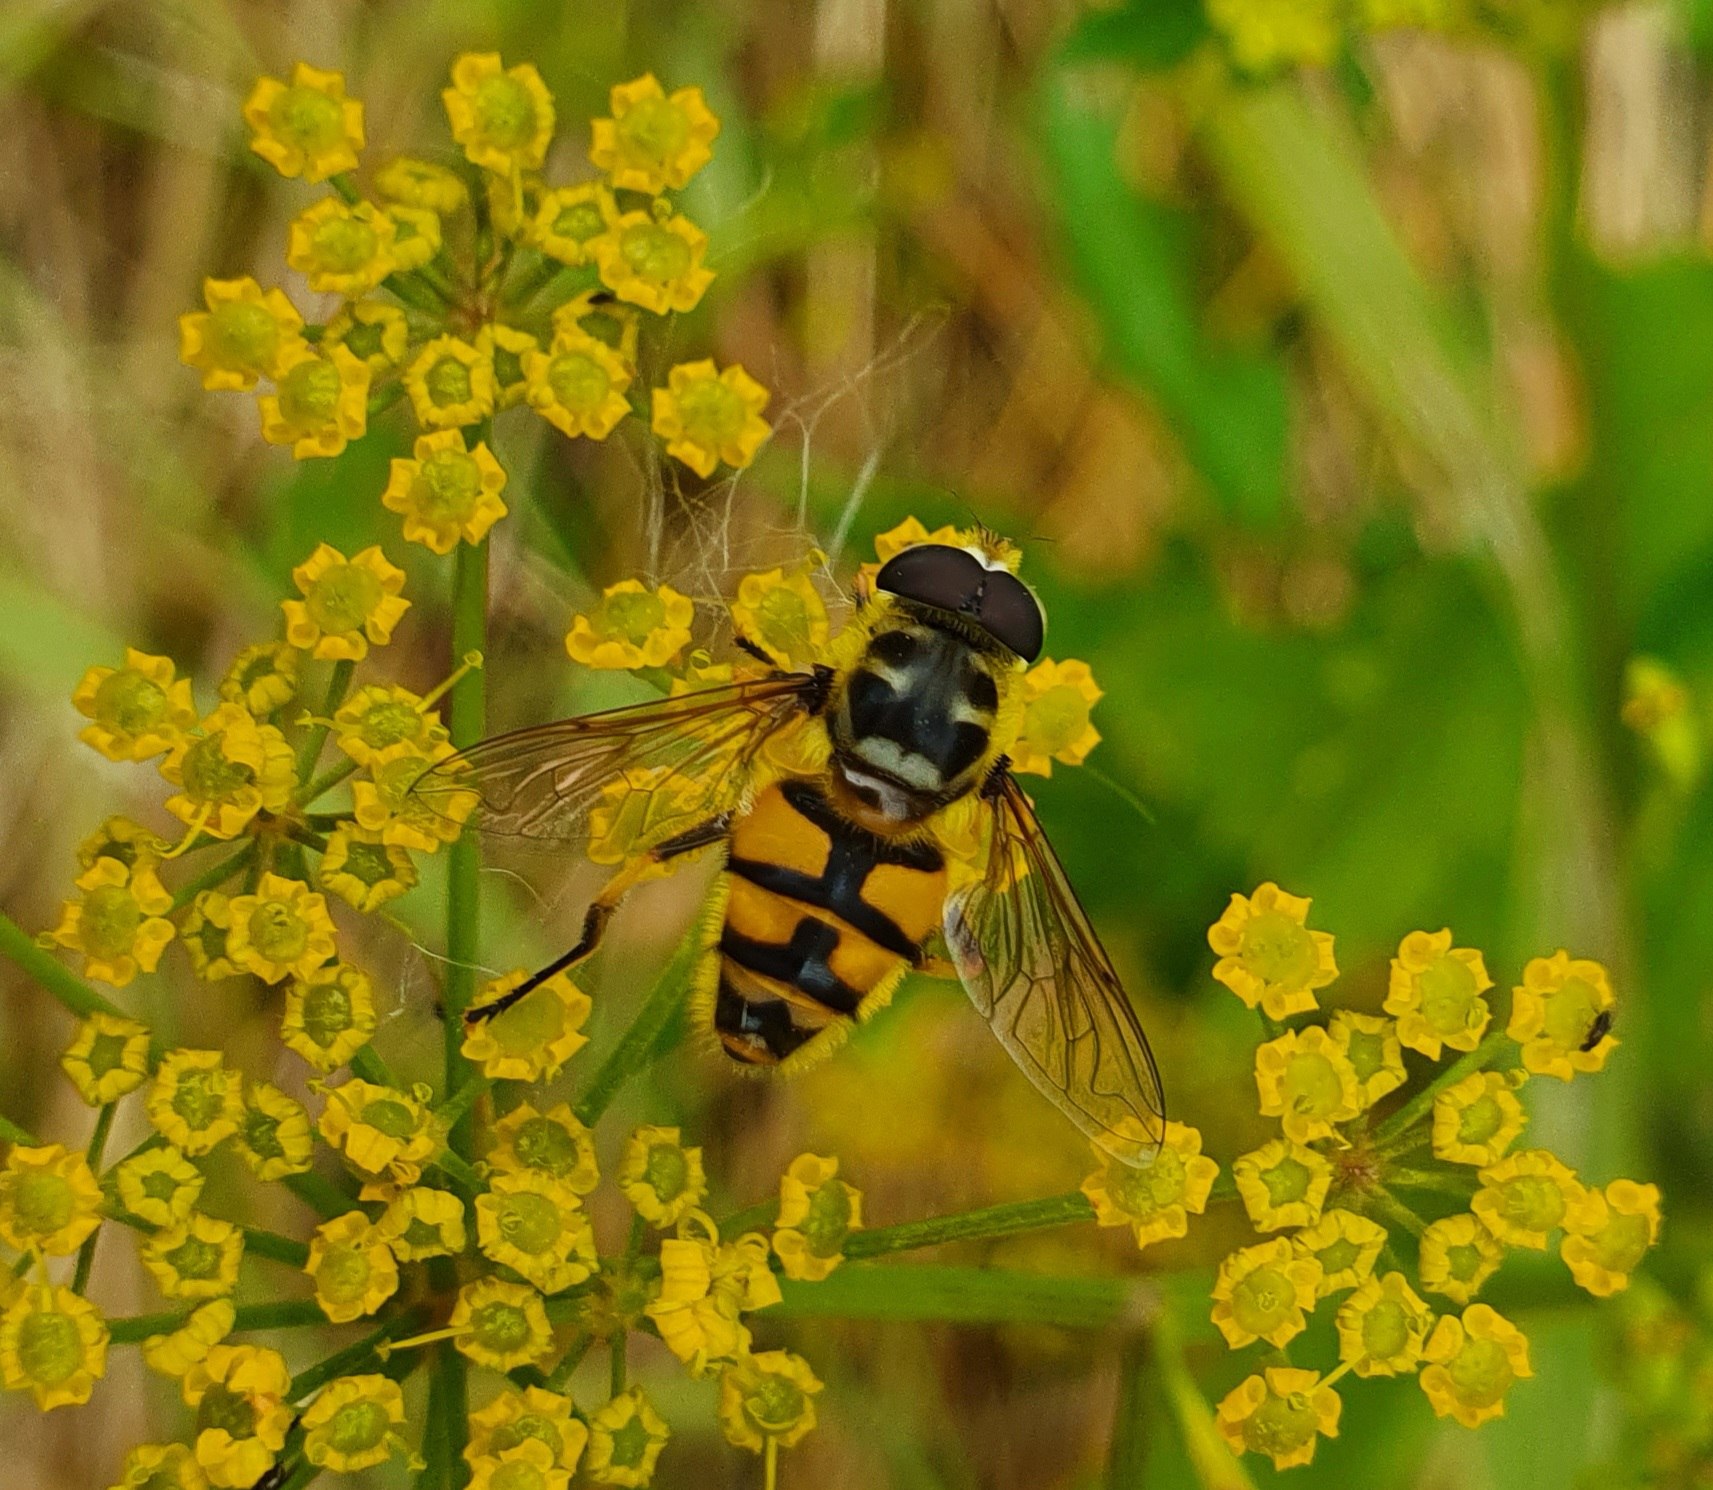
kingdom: Animalia
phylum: Arthropoda
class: Insecta
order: Diptera
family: Syrphidae
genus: Myathropa
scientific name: Myathropa florea
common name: Dødningehoved-svirreflue
